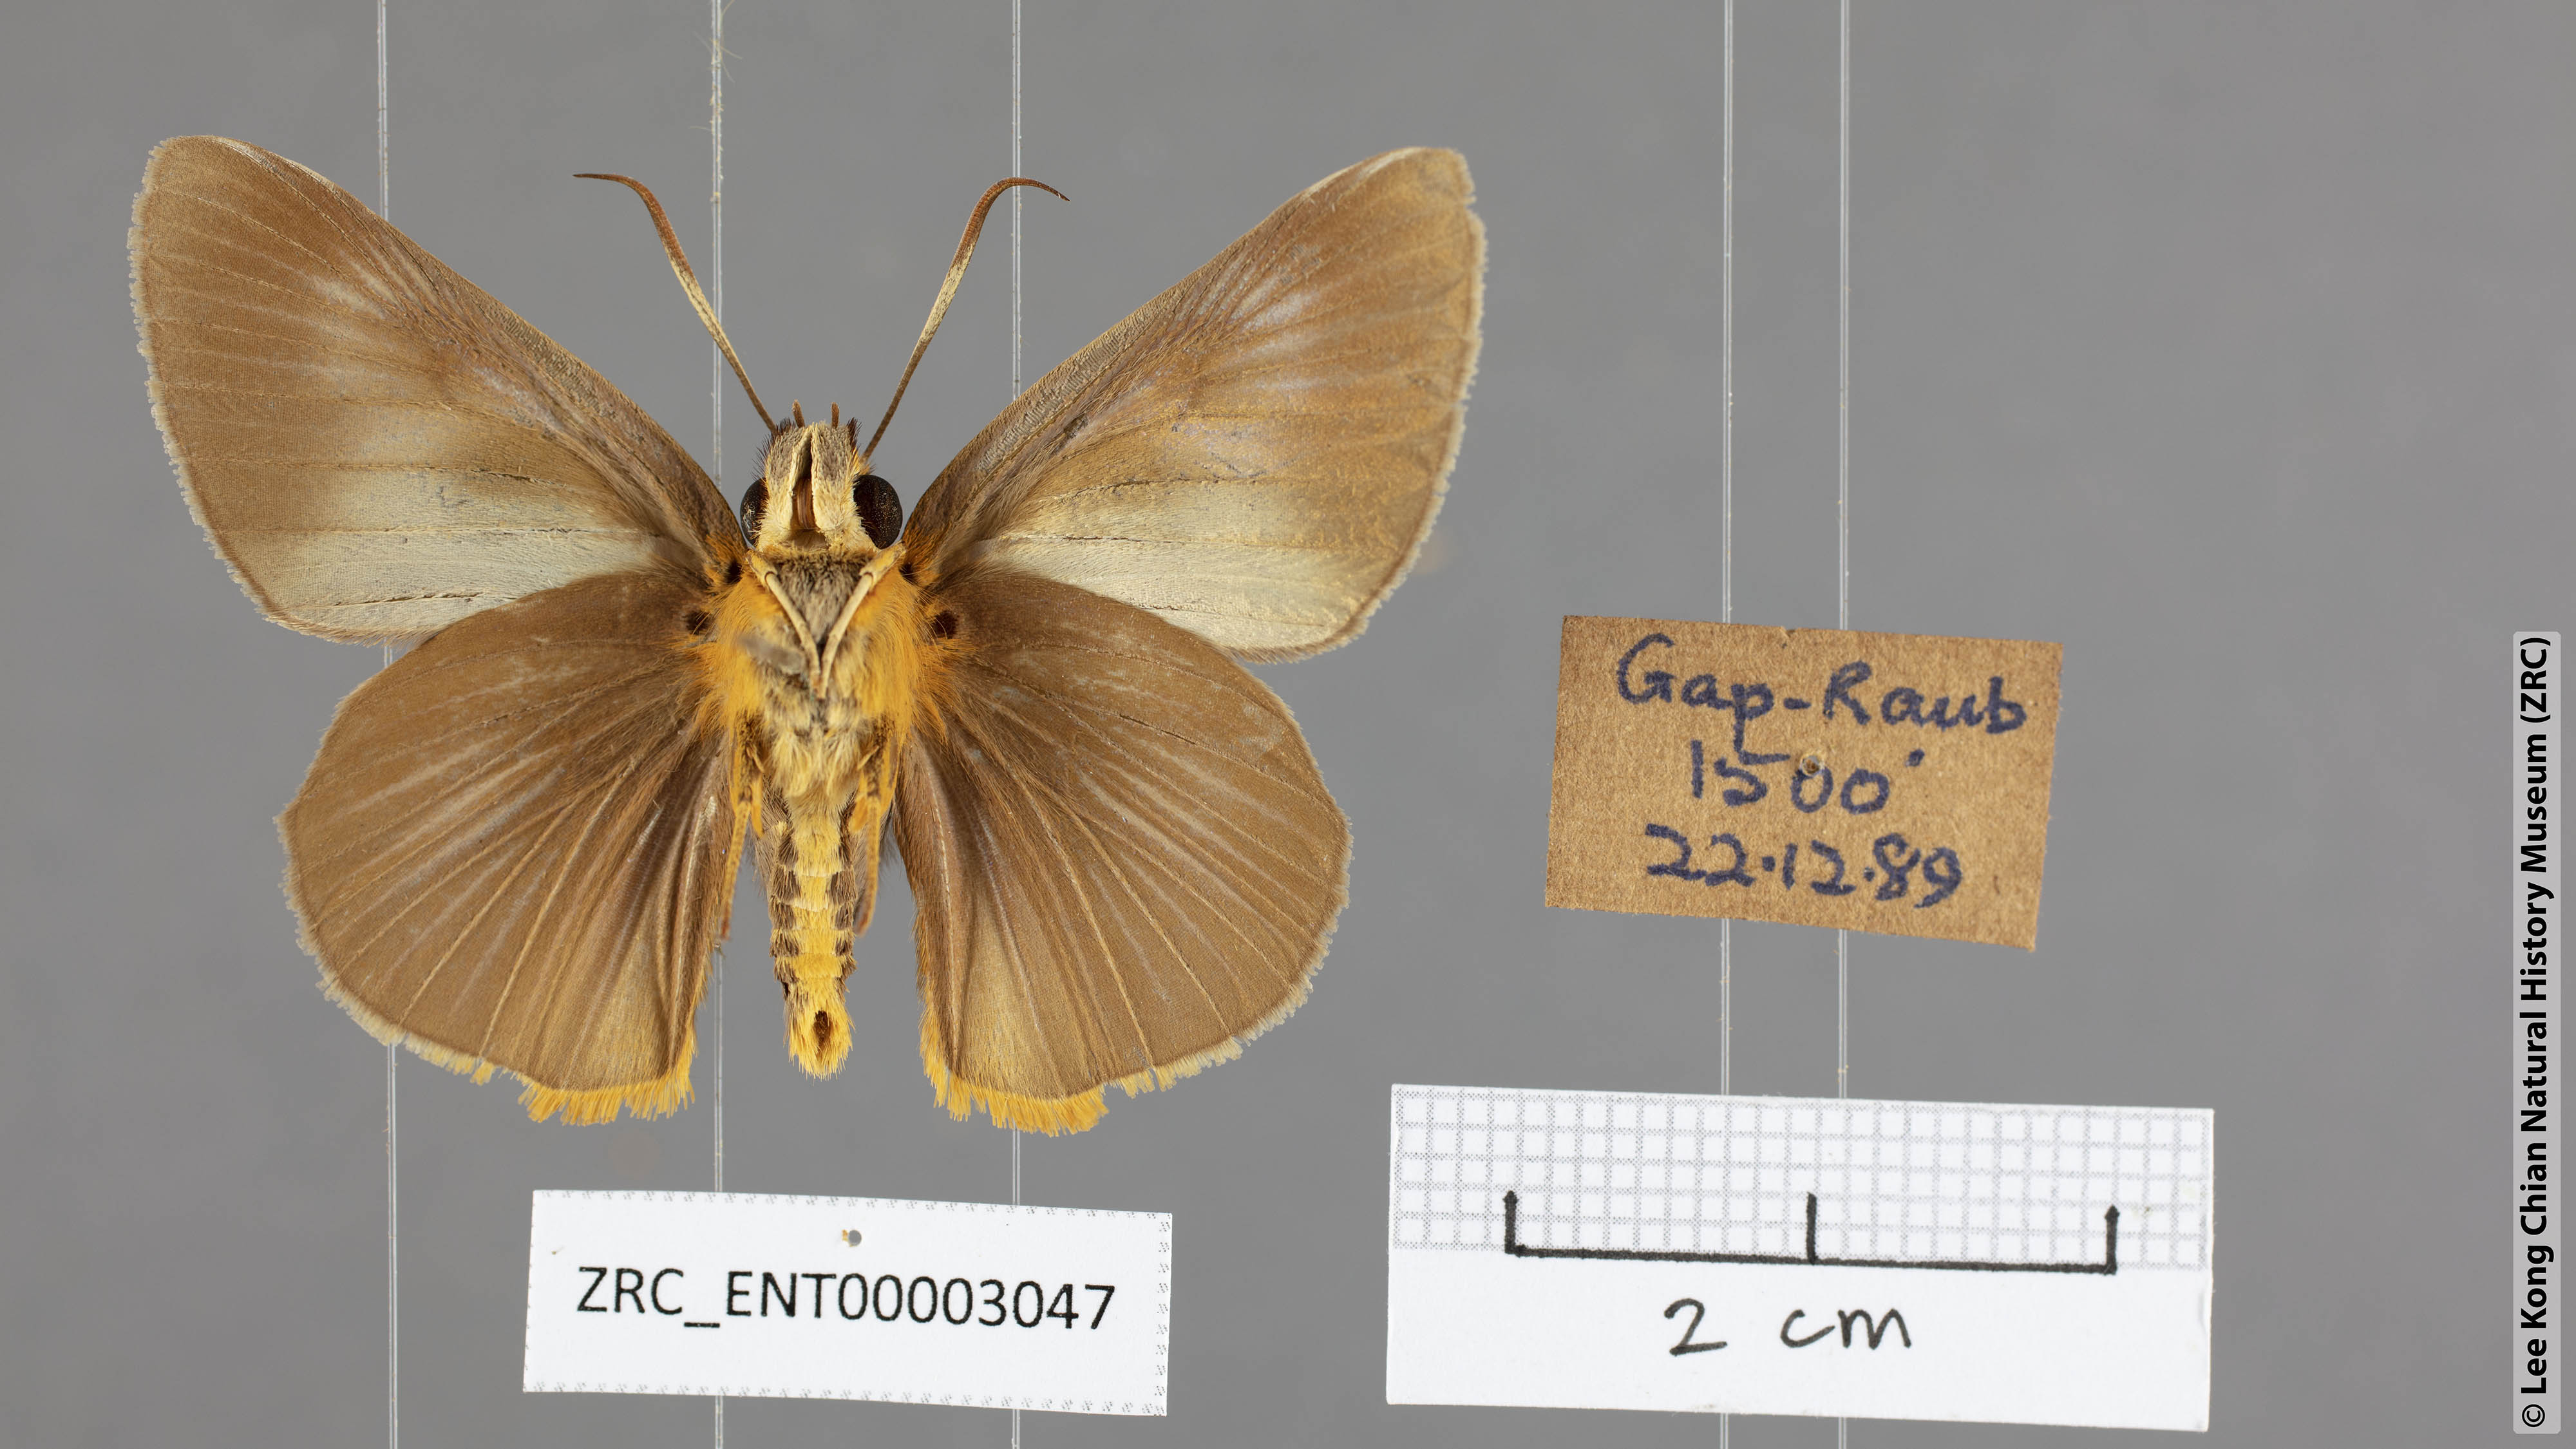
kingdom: Animalia
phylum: Arthropoda
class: Insecta
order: Lepidoptera
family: Hesperiidae
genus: Bibasis
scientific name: Bibasis Burara tuckeri
